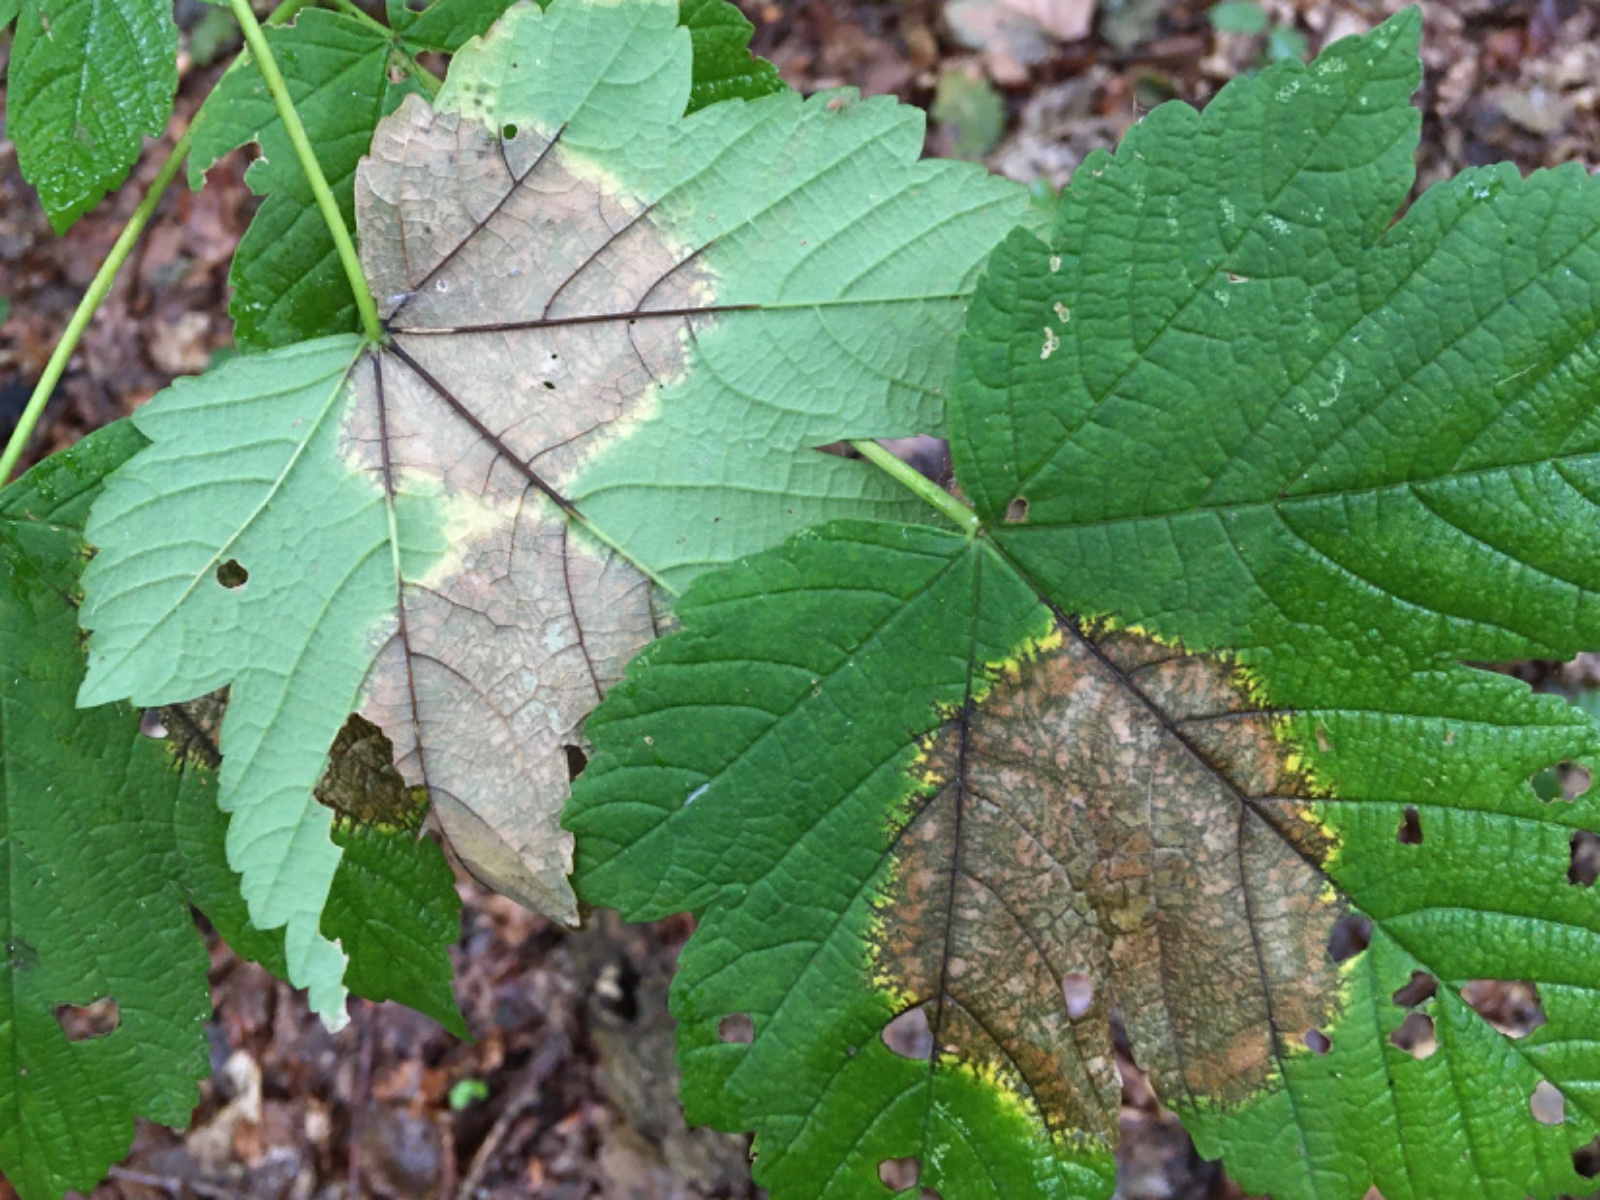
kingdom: Fungi
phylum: Ascomycota
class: Sordariomycetes
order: Diaporthales
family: Gnomoniaceae
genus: Pleuroceras
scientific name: Pleuroceras pseudoplatani
